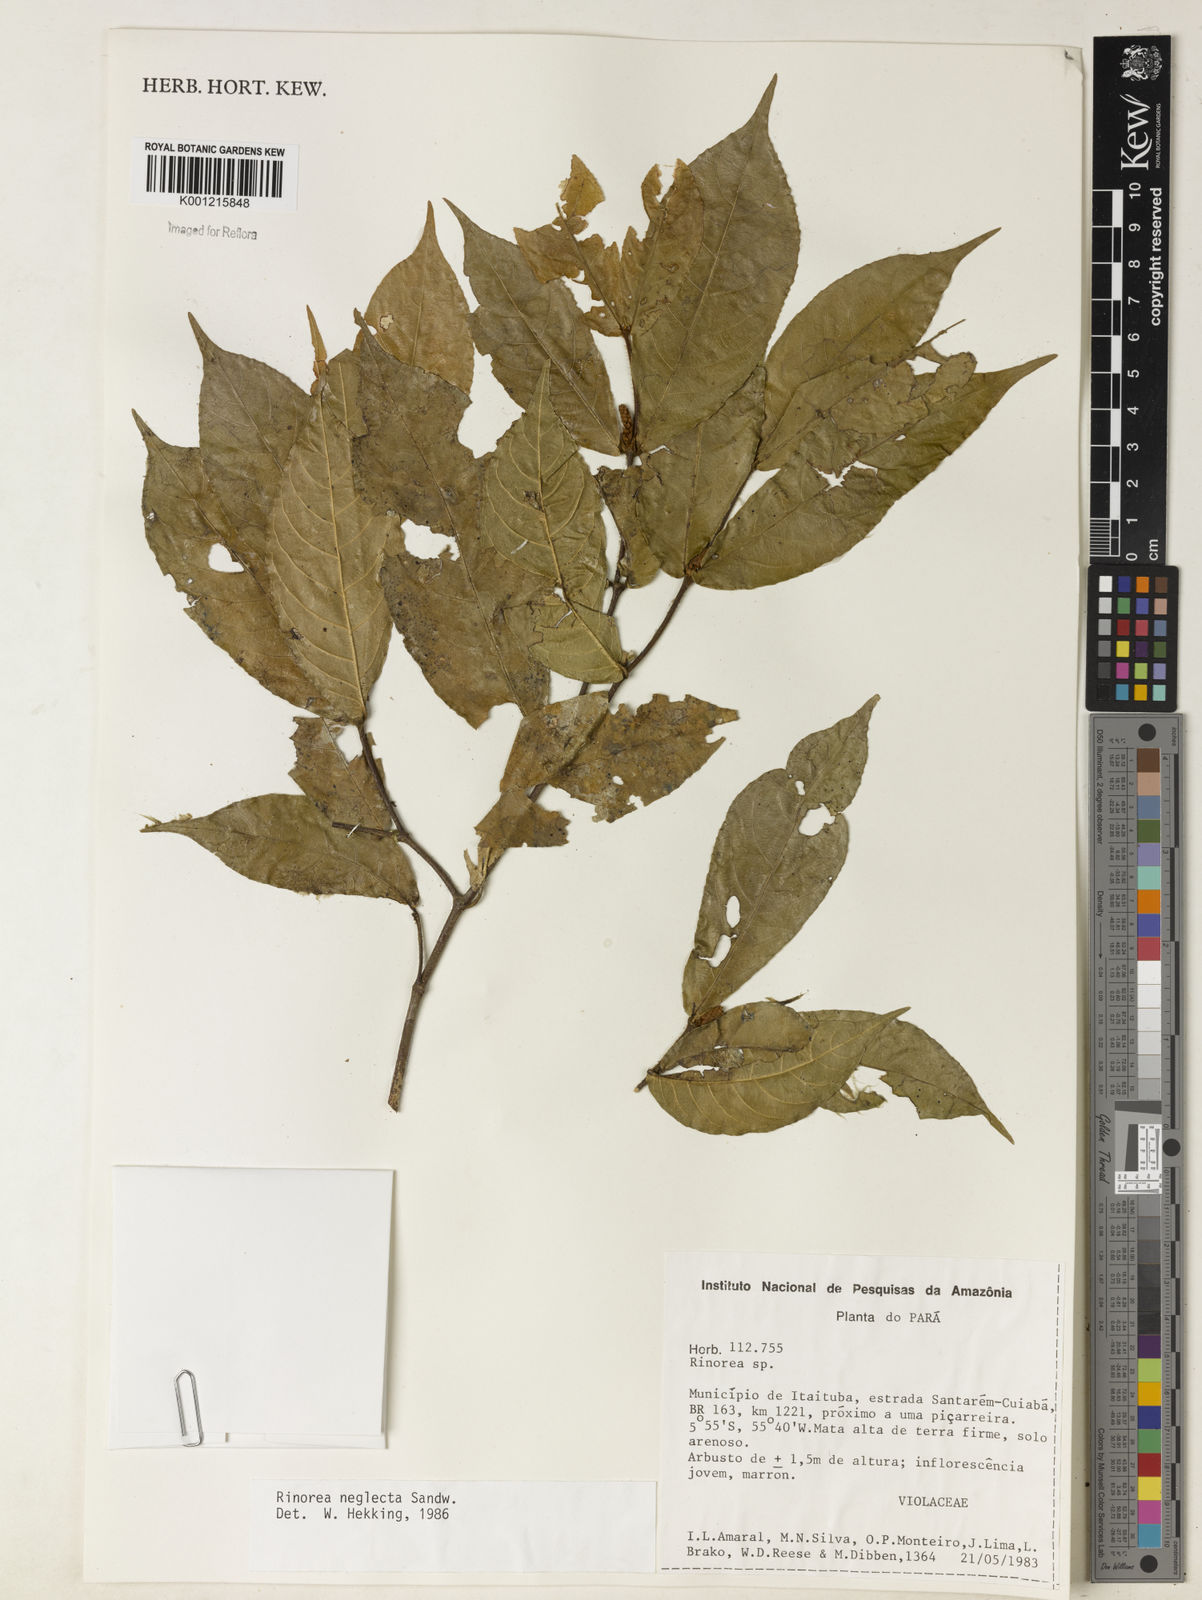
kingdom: Plantae
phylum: Tracheophyta
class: Magnoliopsida
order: Malpighiales
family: Violaceae
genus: Rinorea
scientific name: Rinorea neglecta
